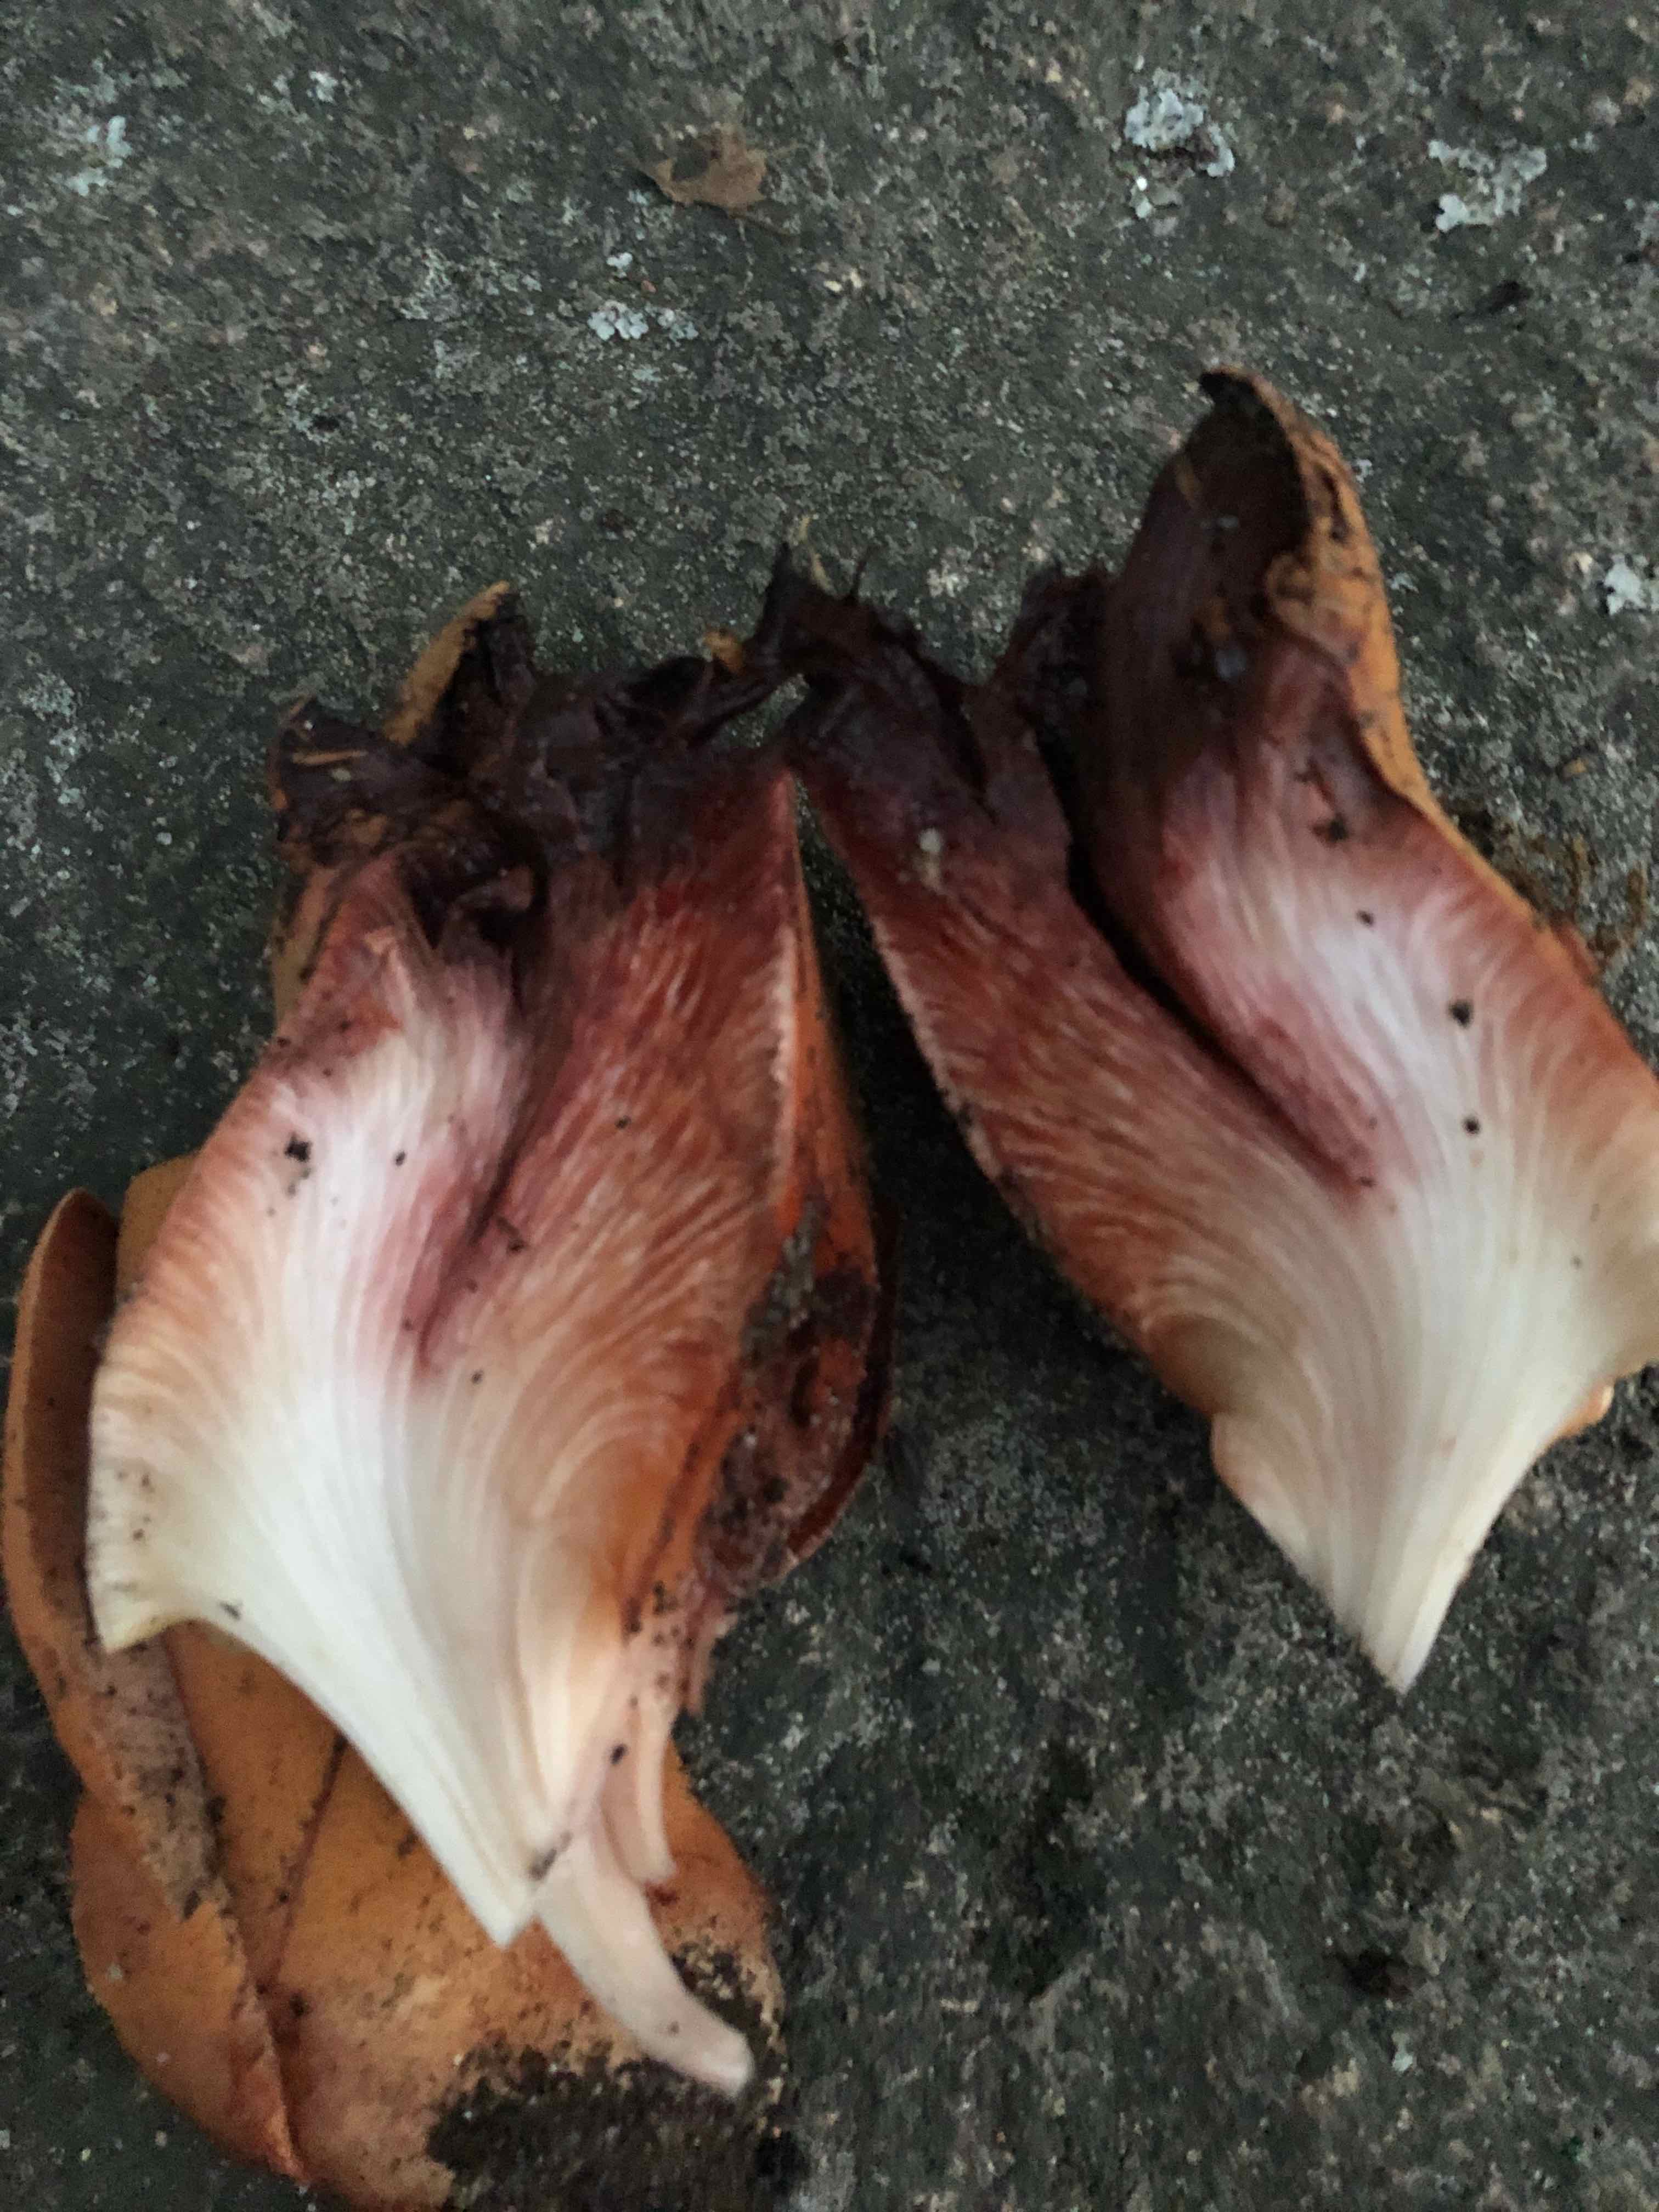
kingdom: Fungi
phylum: Basidiomycota
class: Agaricomycetes
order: Agaricales
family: Fistulinaceae
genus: Fistulina
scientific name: Fistulina hepatica
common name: oksetunge
